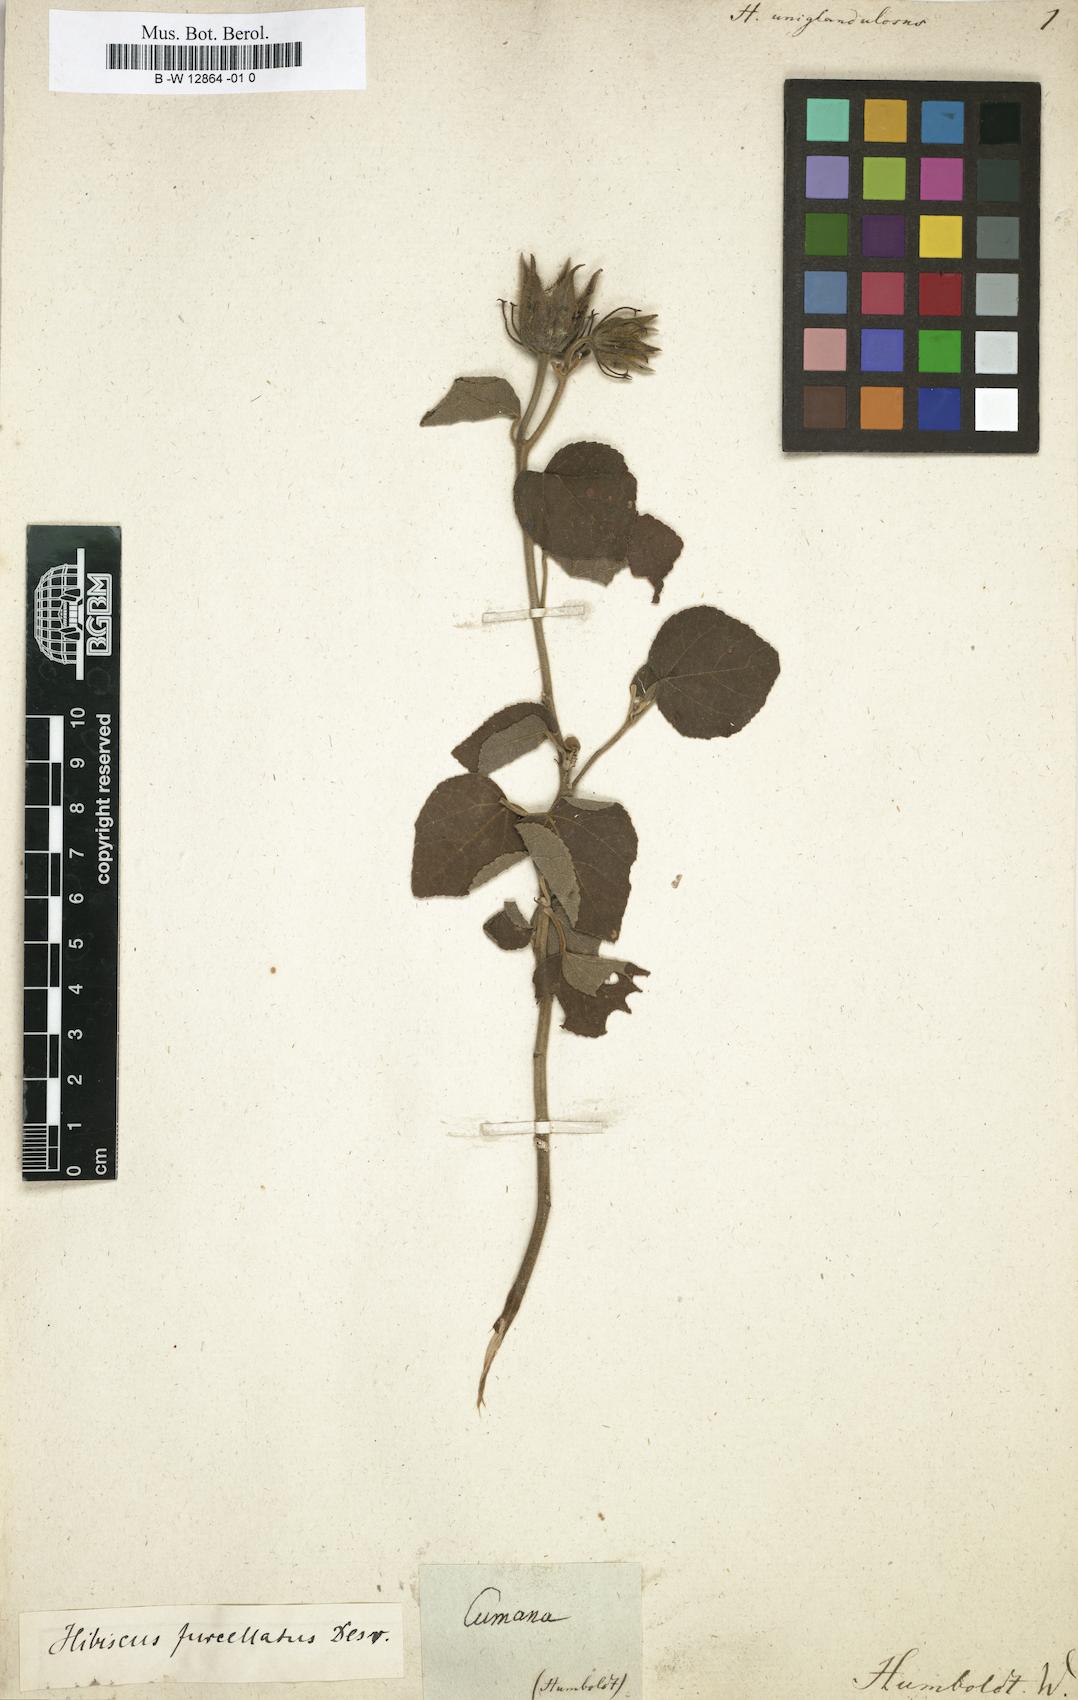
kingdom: Plantae
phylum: Tracheophyta
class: Magnoliopsida
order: Malvales
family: Malvaceae
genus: Hibiscus
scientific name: Hibiscus
